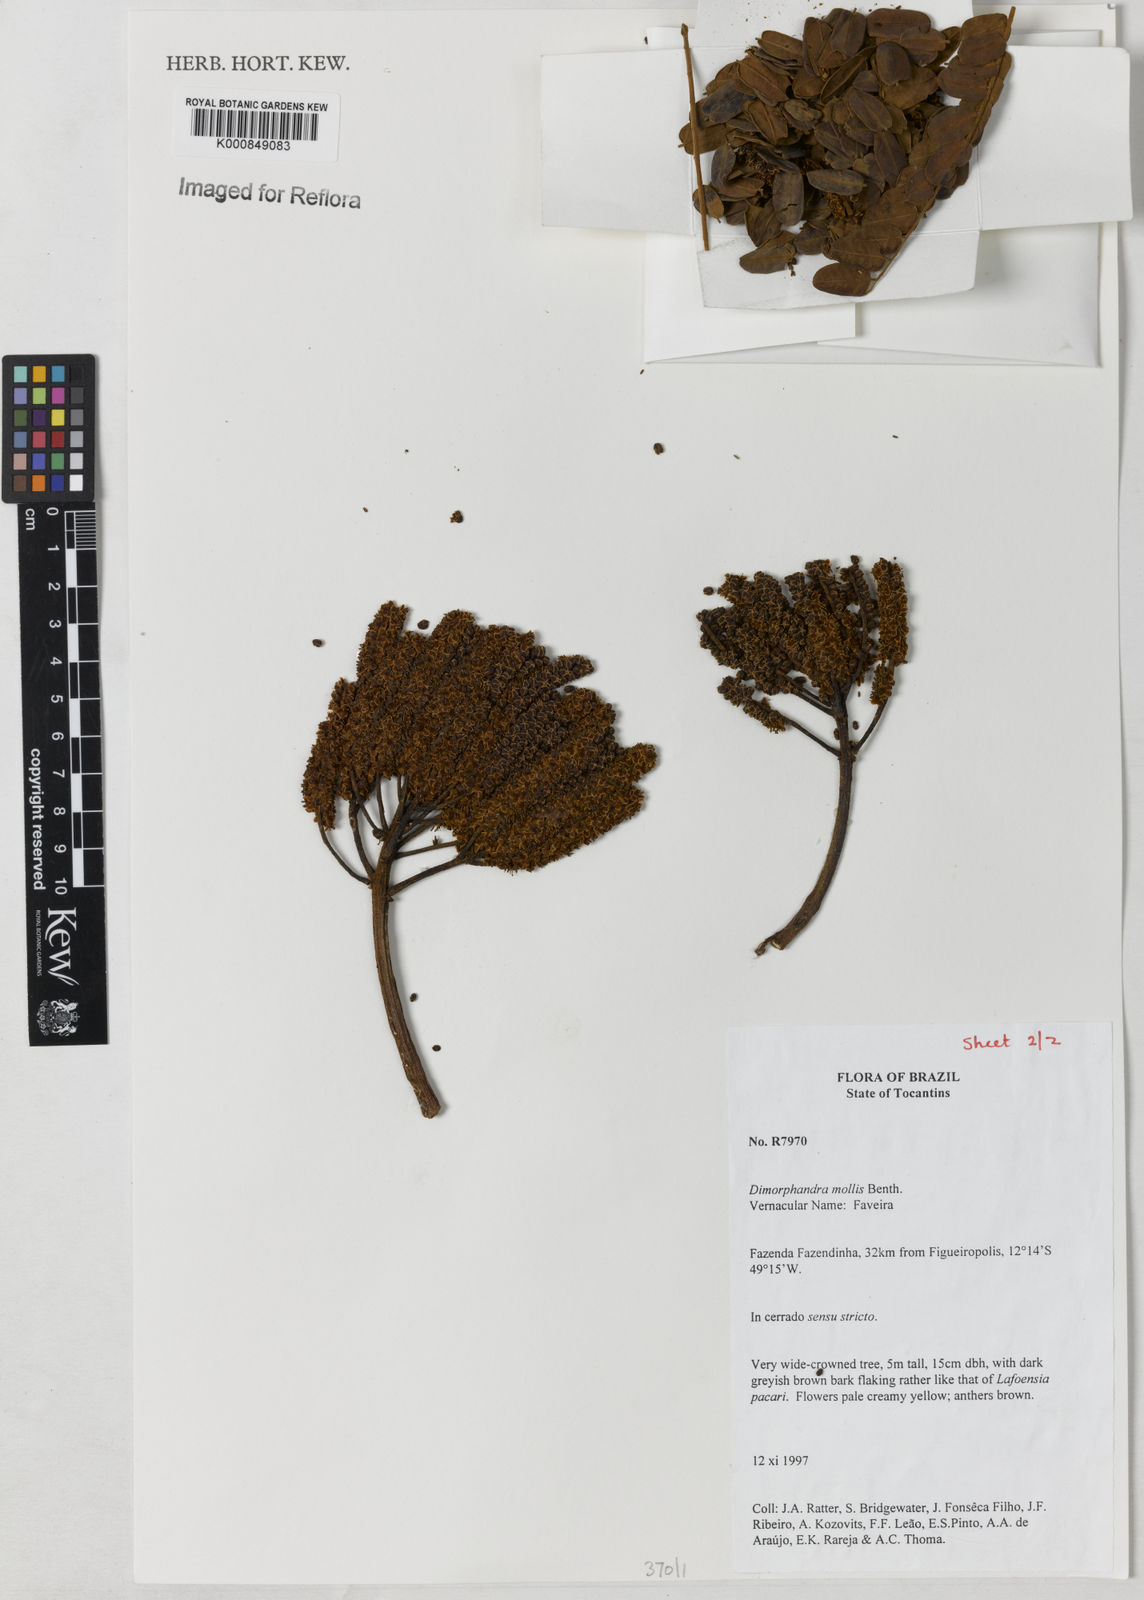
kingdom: Plantae
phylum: Tracheophyta
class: Magnoliopsida
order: Fabales
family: Fabaceae
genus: Dimorphandra
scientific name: Dimorphandra mollis
